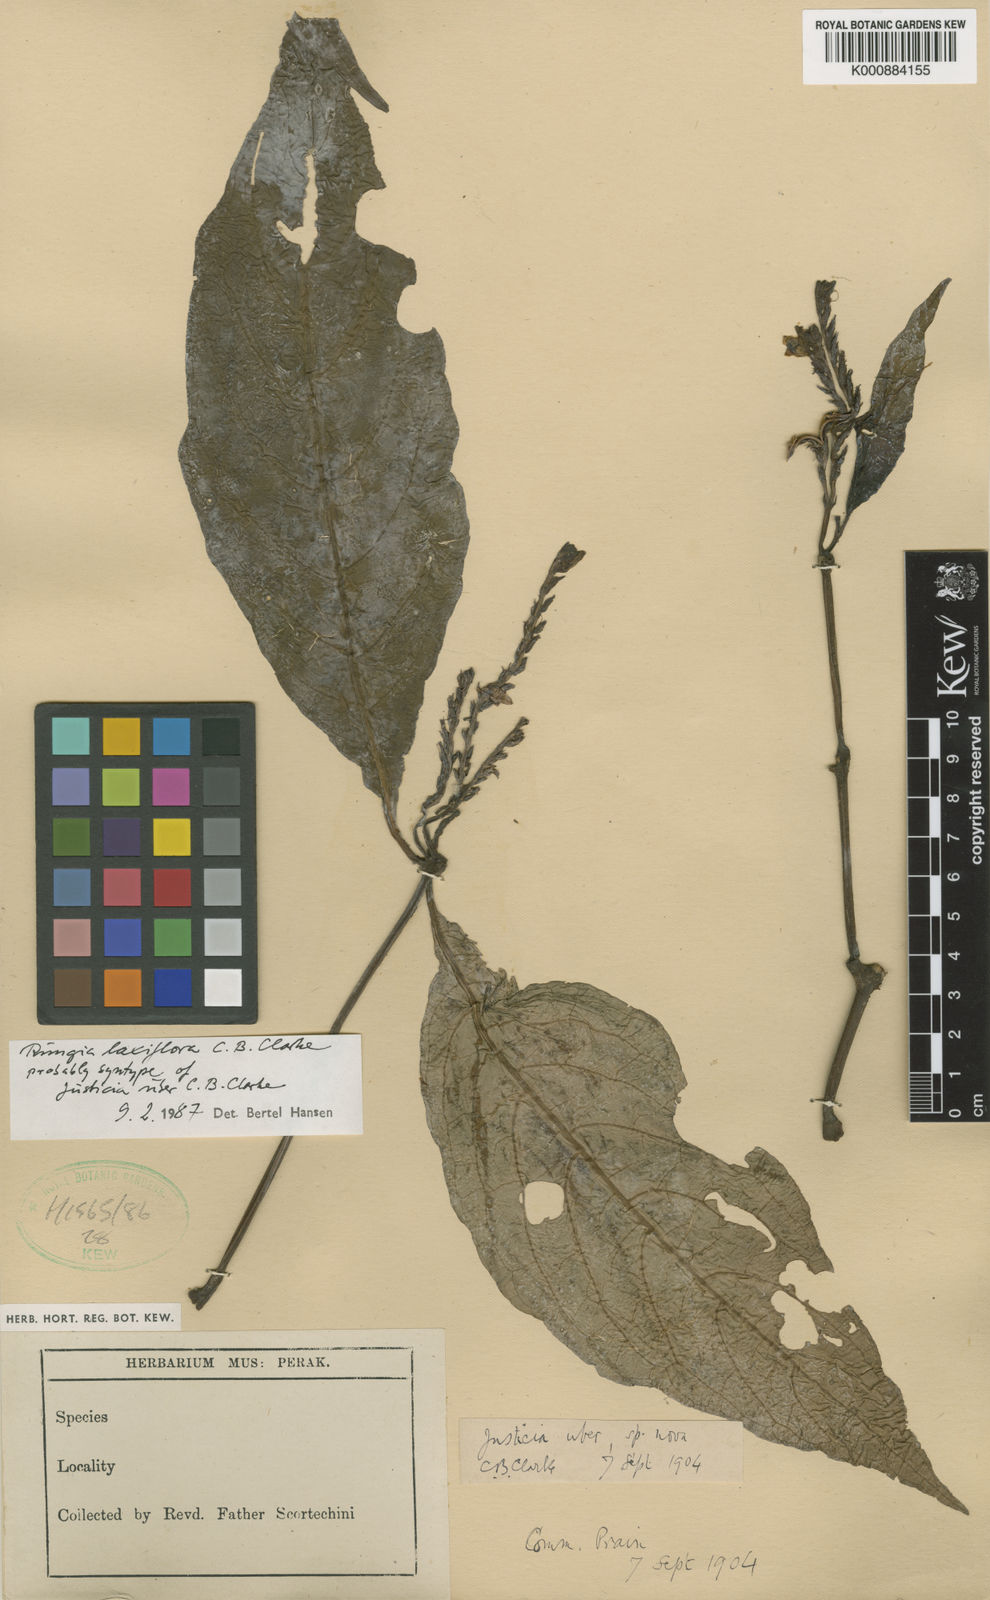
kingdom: Plantae
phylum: Tracheophyta
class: Magnoliopsida
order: Lamiales
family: Acanthaceae
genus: Haplanthus
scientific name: Haplanthus laxiflorus
